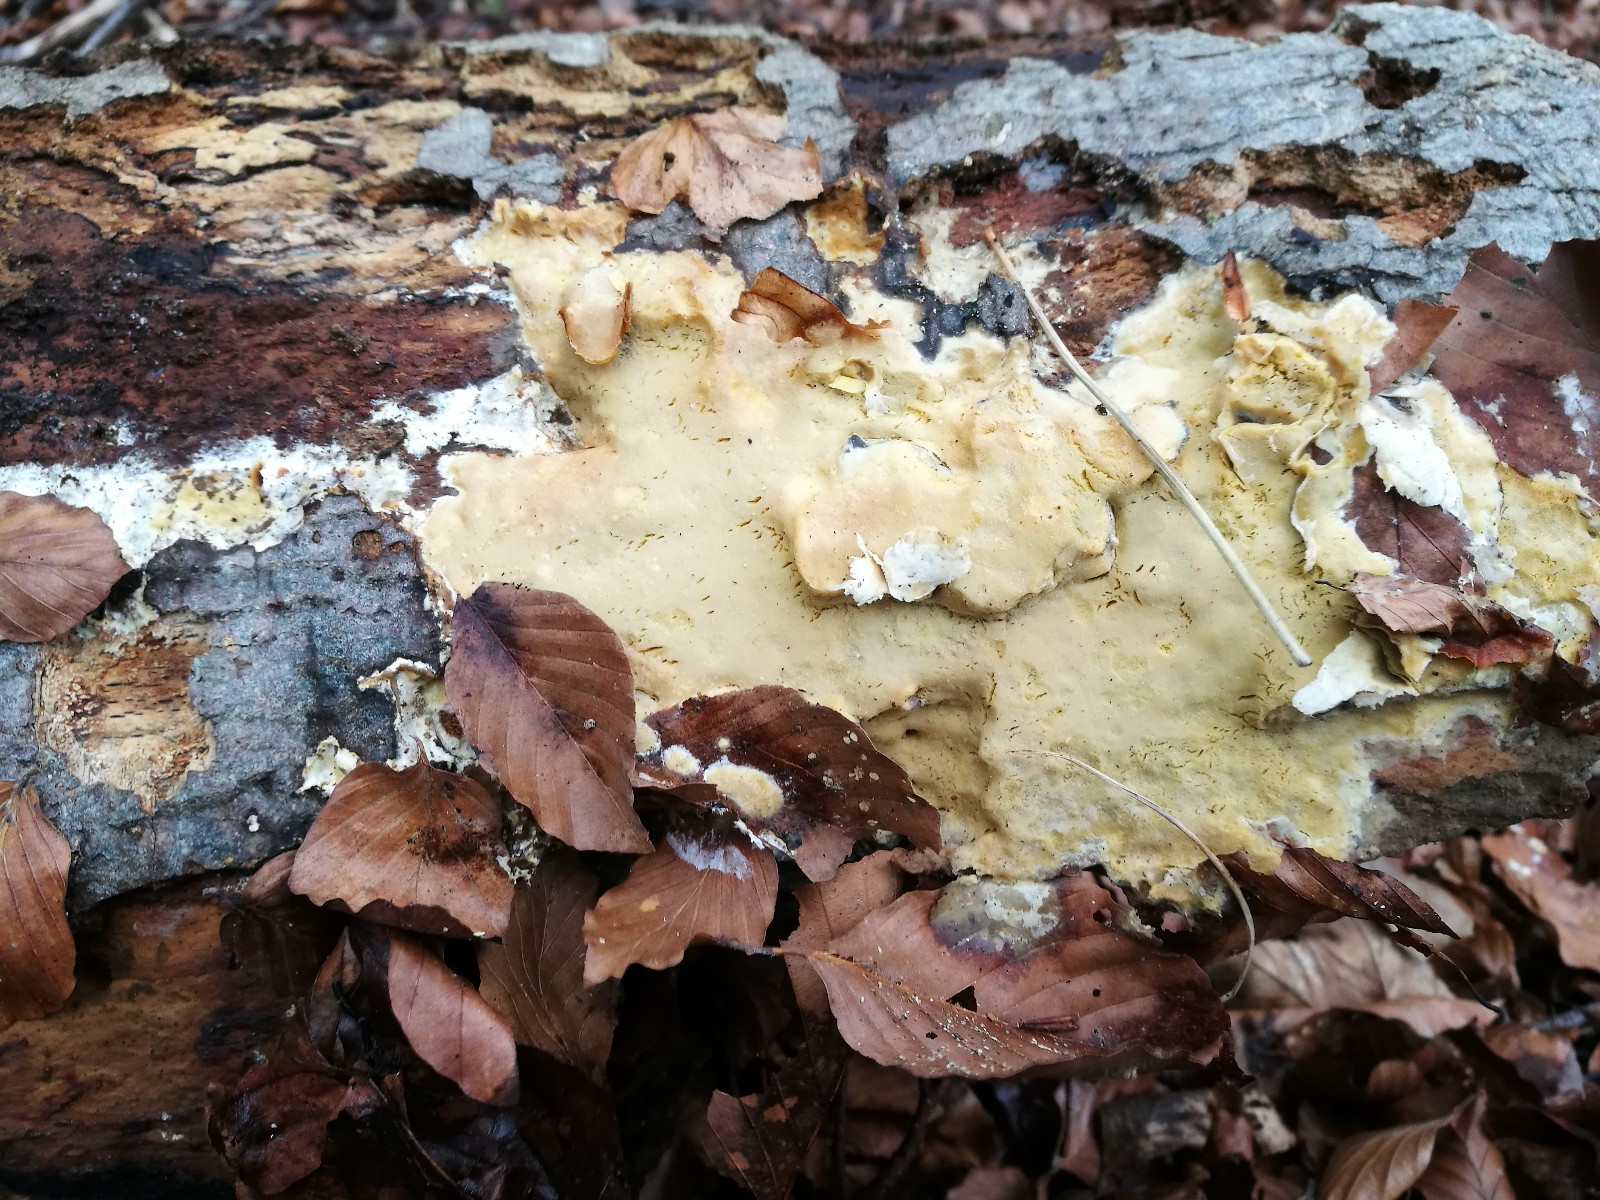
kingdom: Fungi
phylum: Basidiomycota
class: Agaricomycetes
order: Polyporales
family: Irpicaceae
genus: Gloeoporus
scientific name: Gloeoporus pannocinctus
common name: grøngul foldporesvamp
